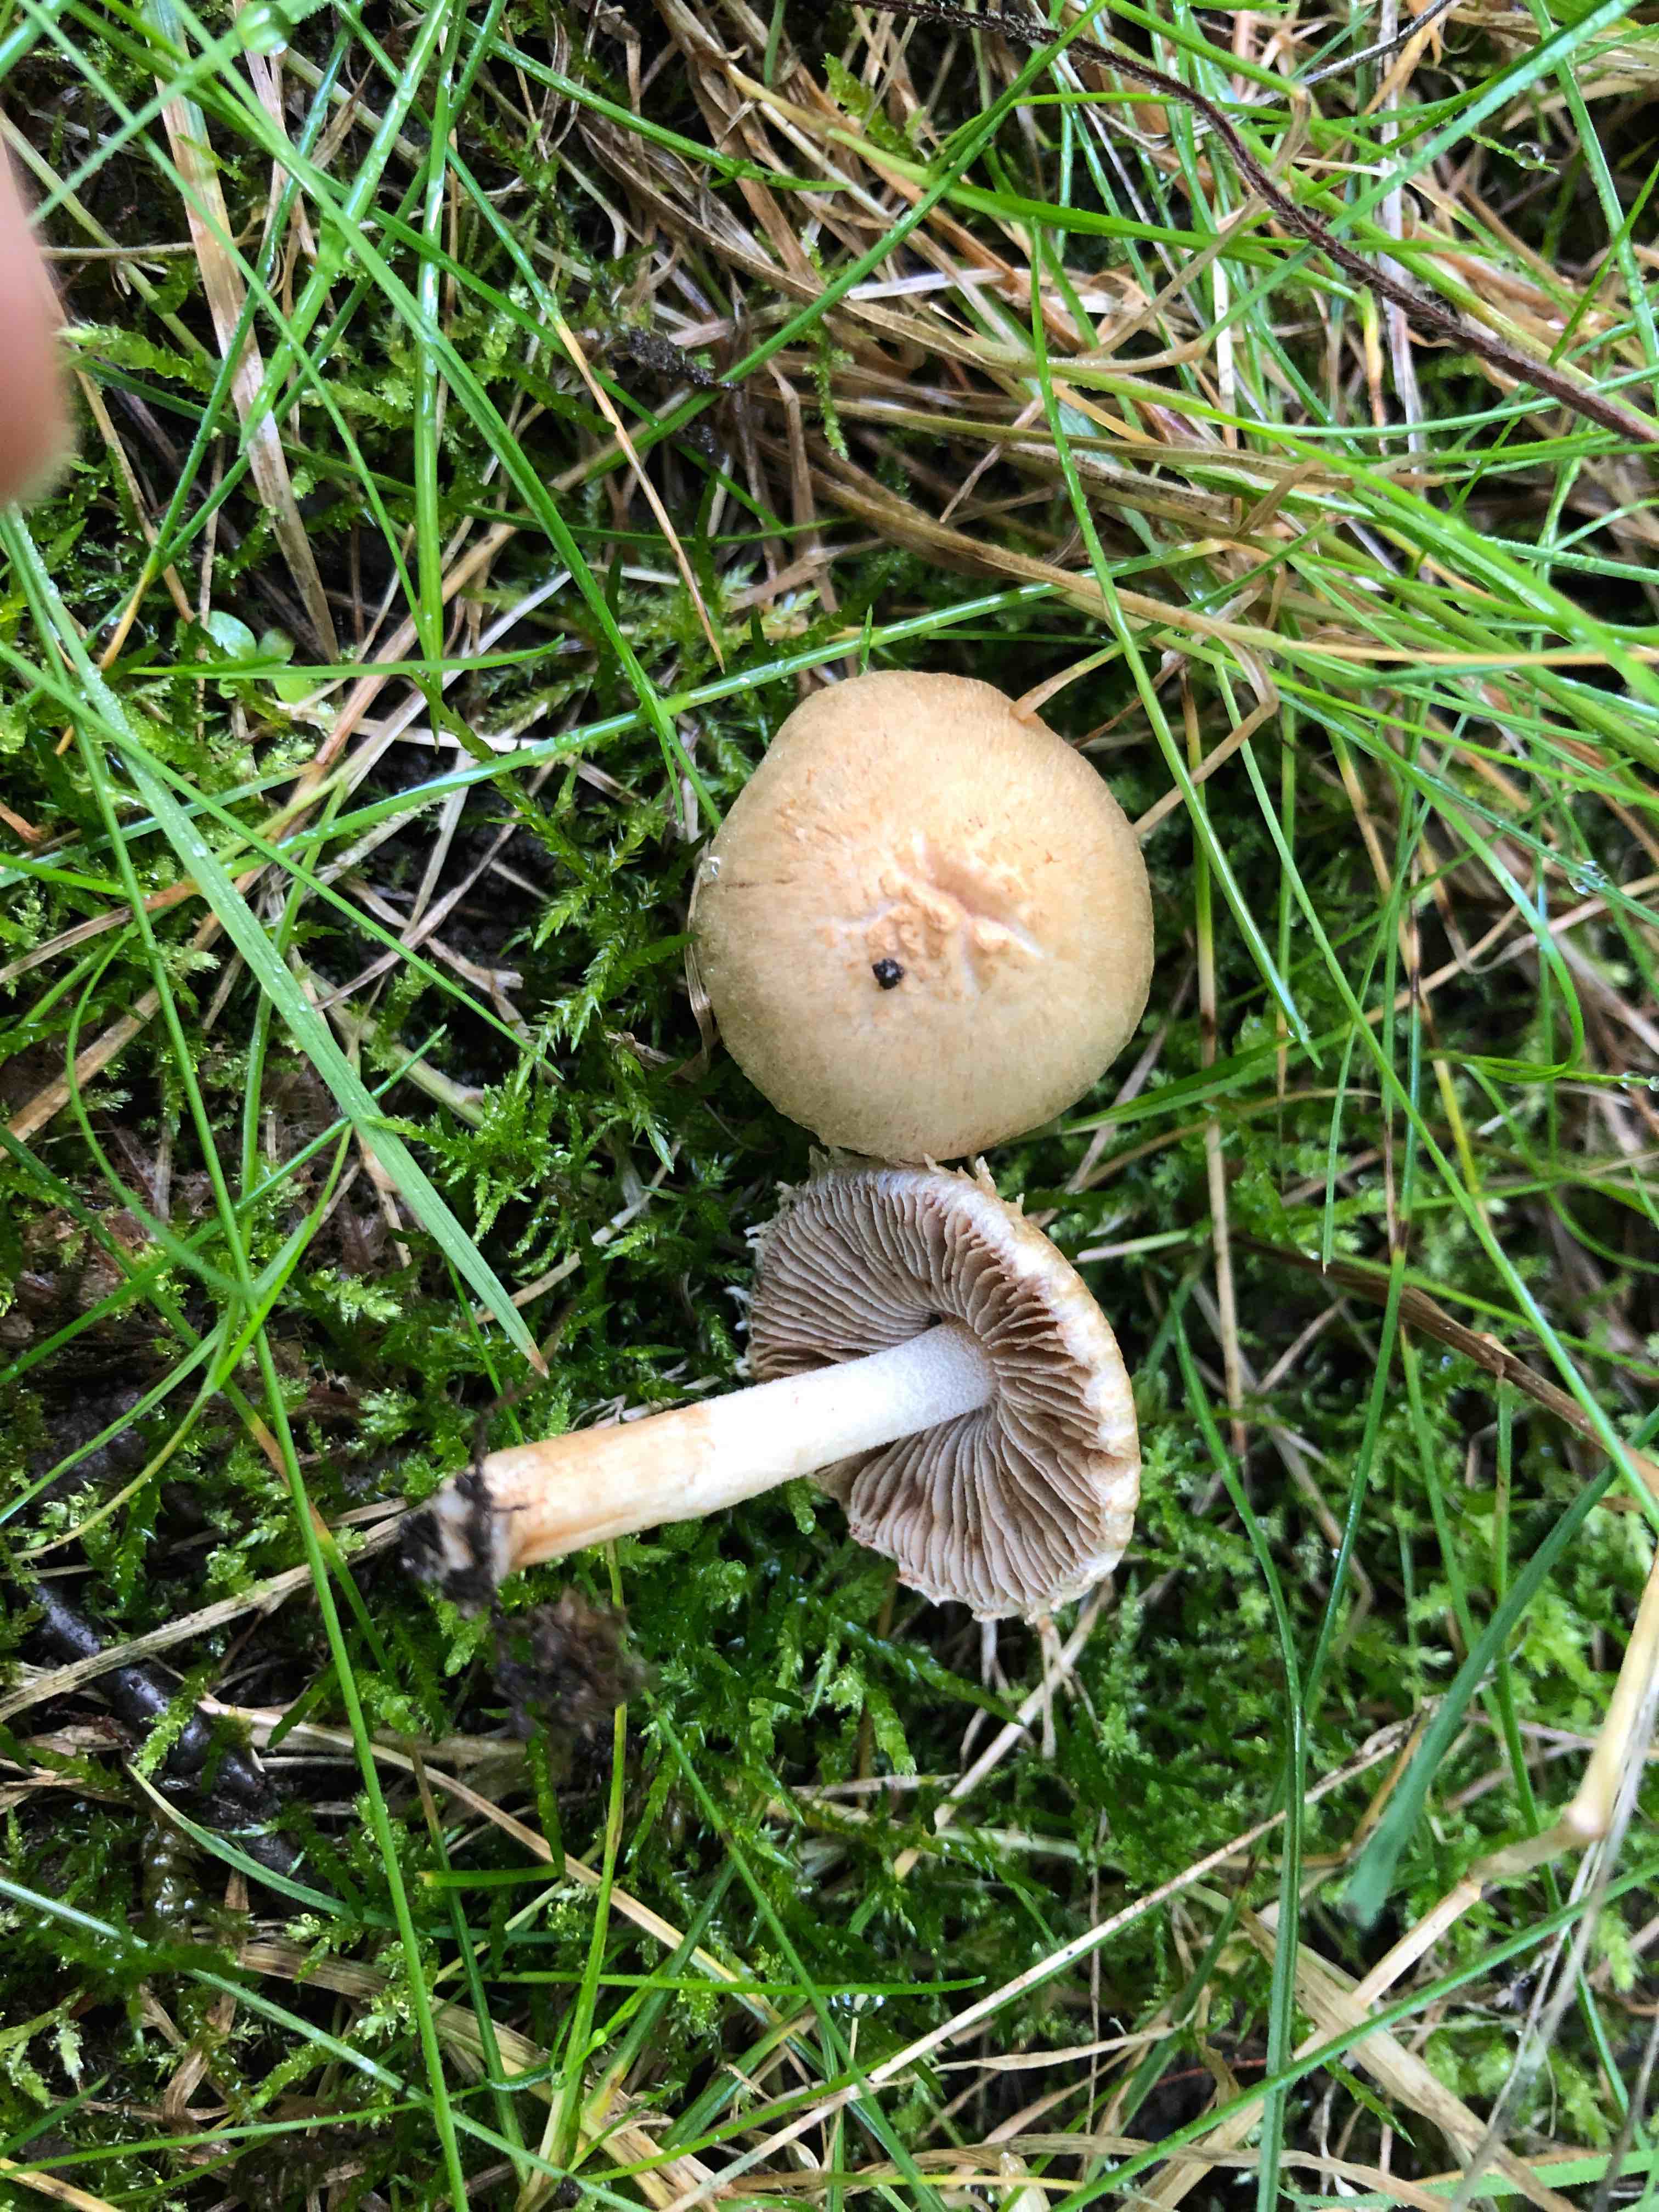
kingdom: Fungi
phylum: Basidiomycota
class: Agaricomycetes
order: Agaricales
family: Inocybaceae
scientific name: Inocybaceae
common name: trævlhatfamilien
